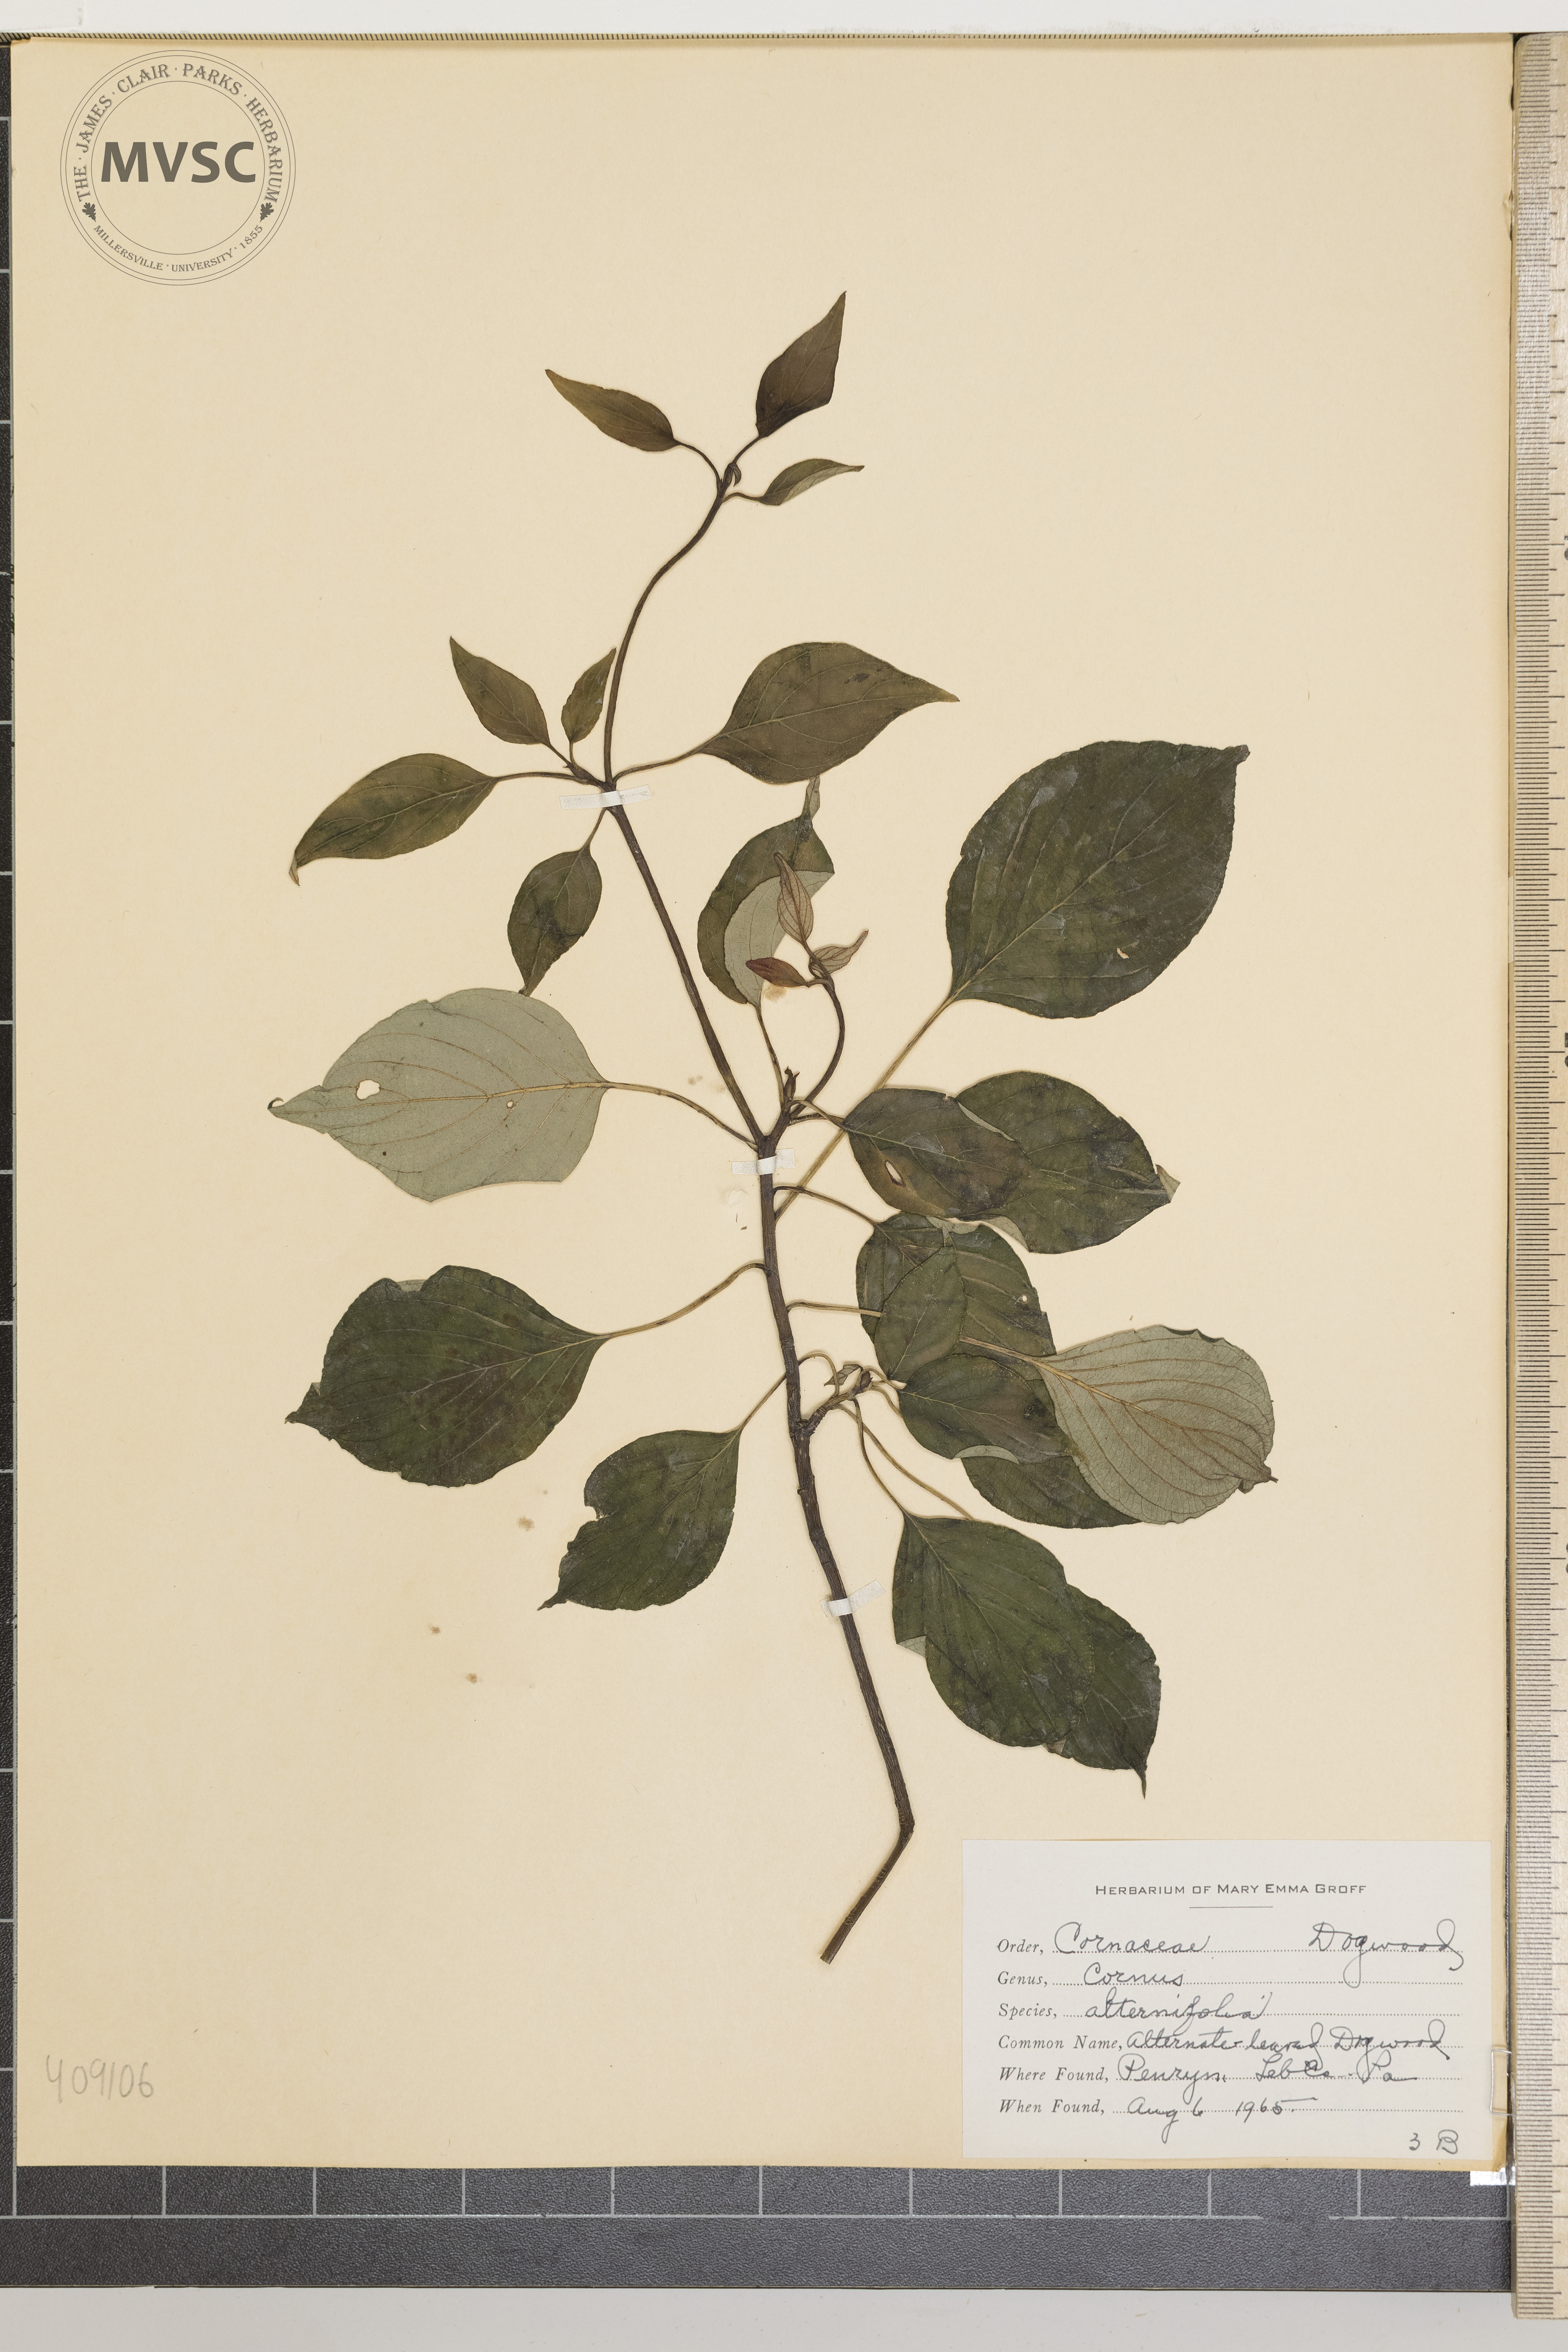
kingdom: Plantae
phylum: Tracheophyta
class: Magnoliopsida
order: Cornales
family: Cornaceae
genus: Cornus
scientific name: Cornus alternifolia
